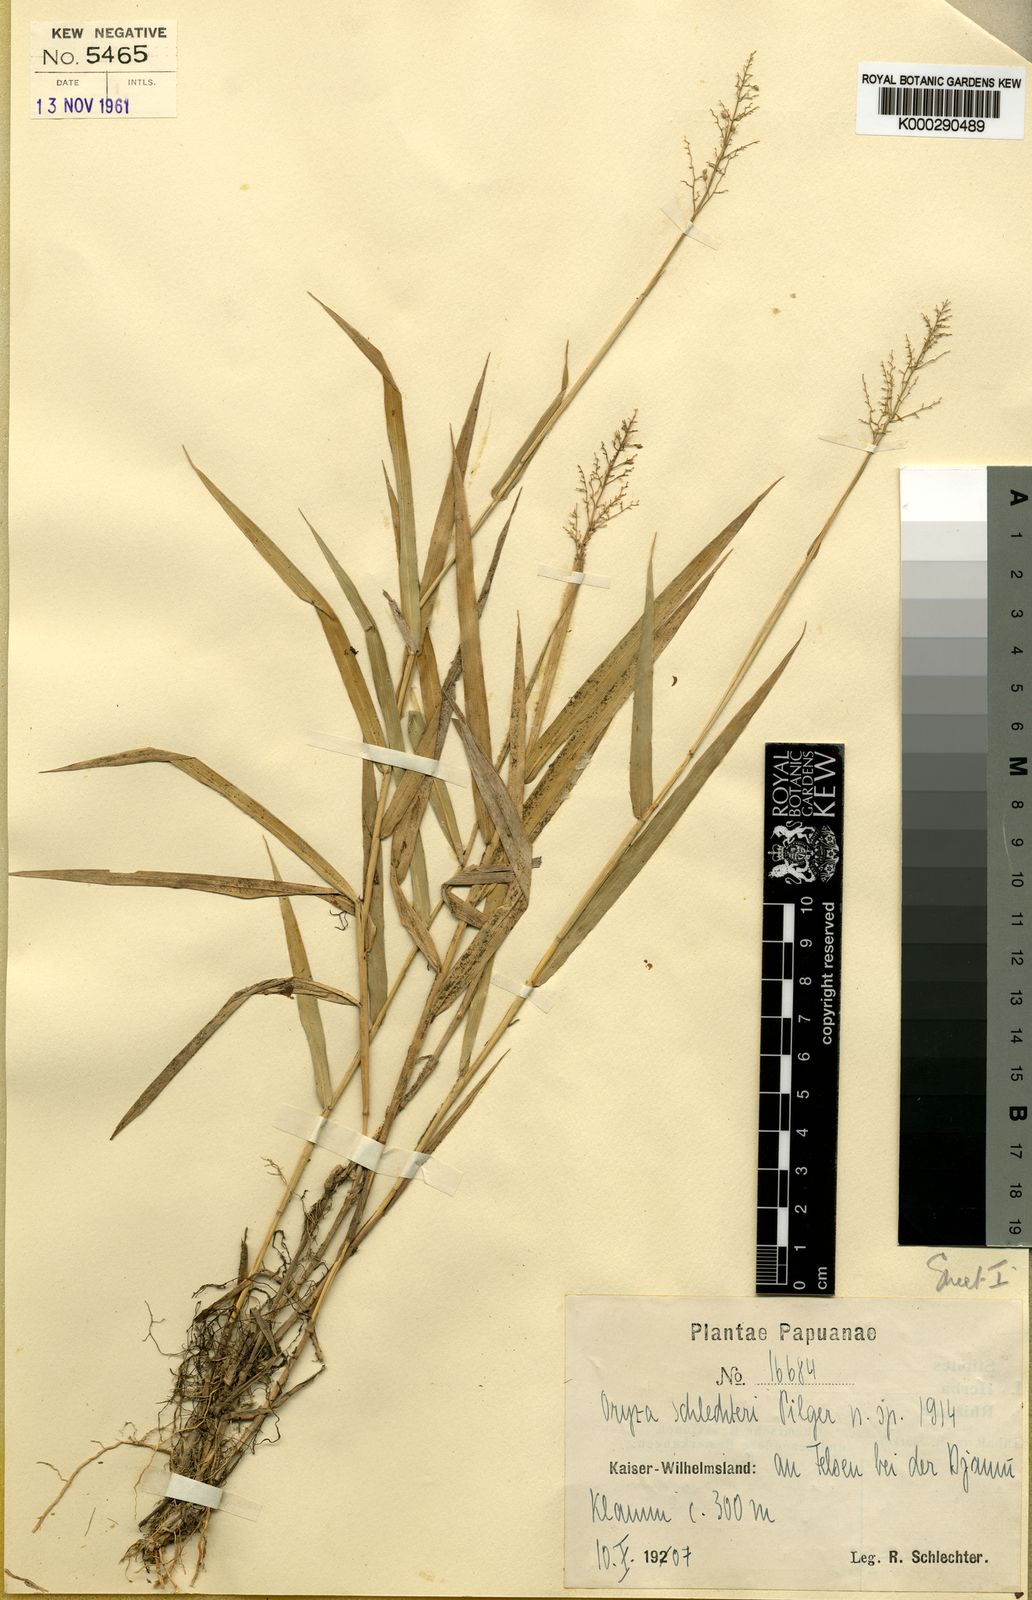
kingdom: Plantae
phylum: Tracheophyta
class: Liliopsida
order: Poales
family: Poaceae
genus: Oryza
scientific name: Oryza schlechteri
